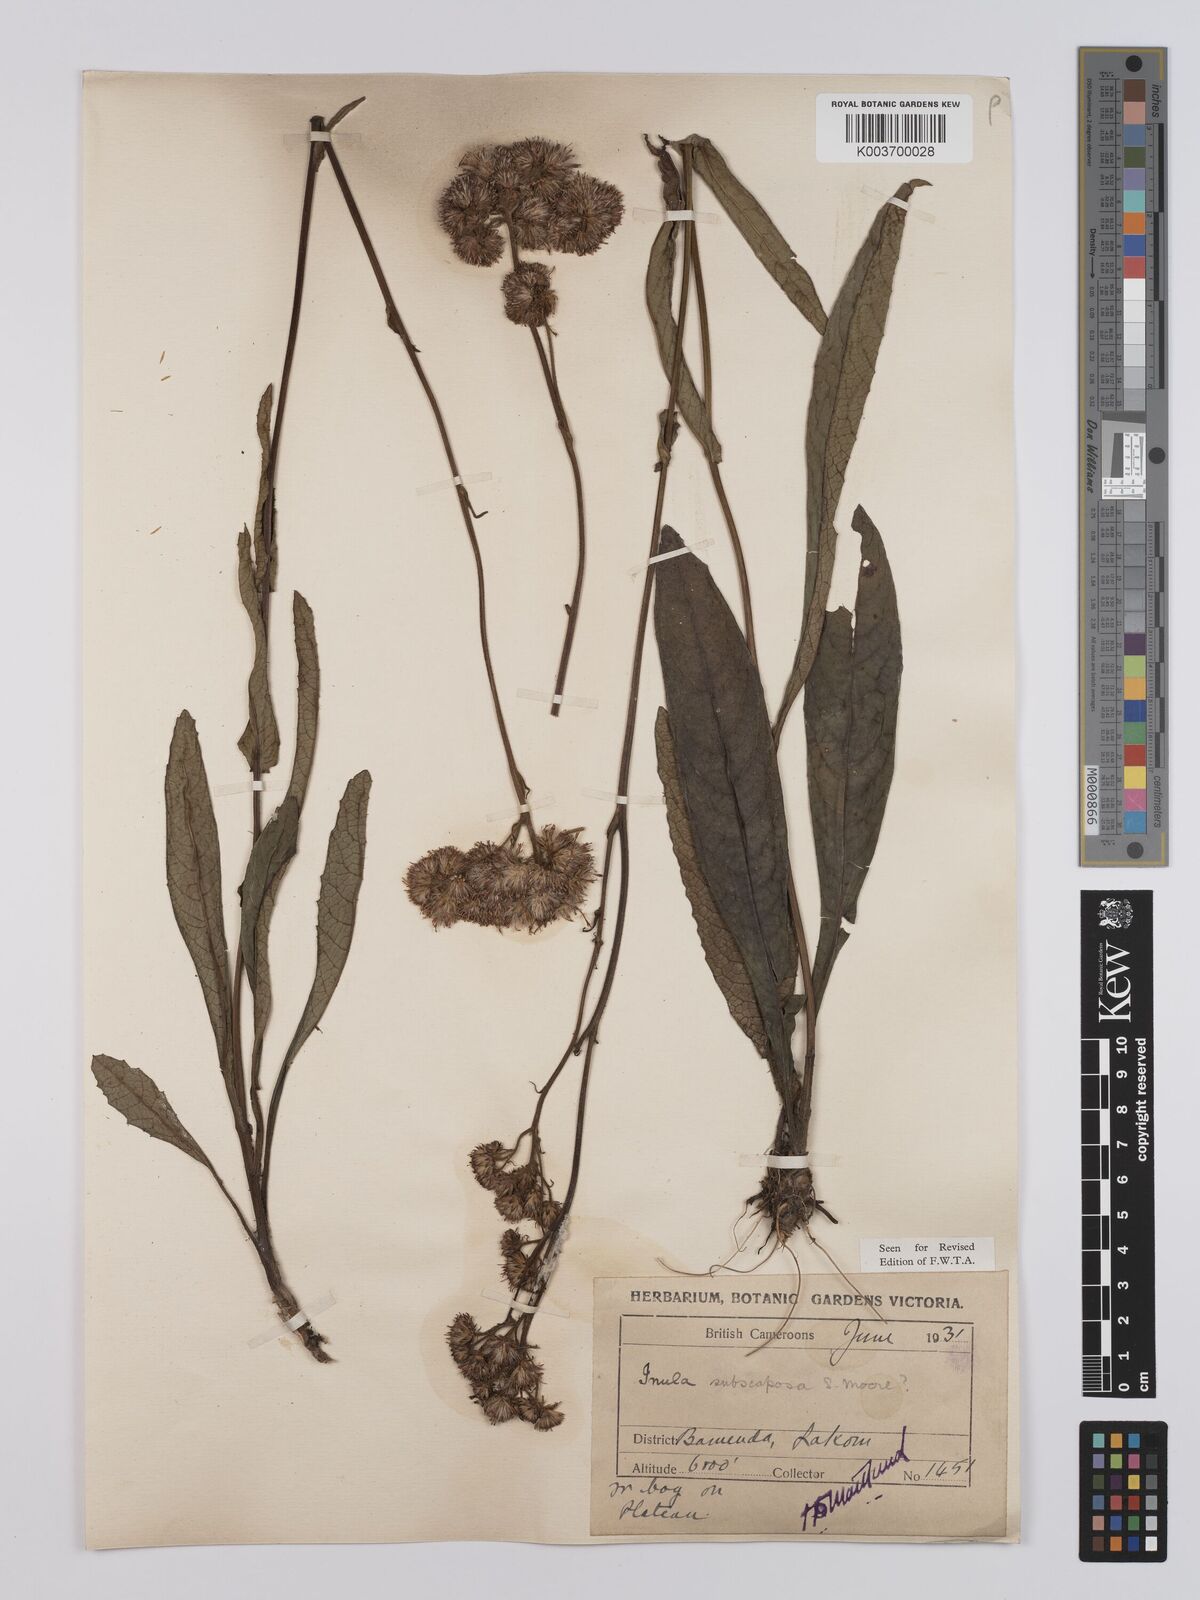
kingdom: Plantae
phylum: Tracheophyta
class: Magnoliopsida
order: Asterales
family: Asteraceae
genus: Monactinocephalus
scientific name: Monactinocephalus paniculatus
